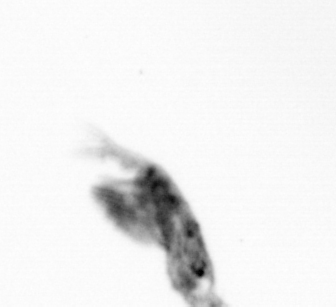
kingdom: Animalia
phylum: Arthropoda
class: Copepoda
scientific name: Copepoda
